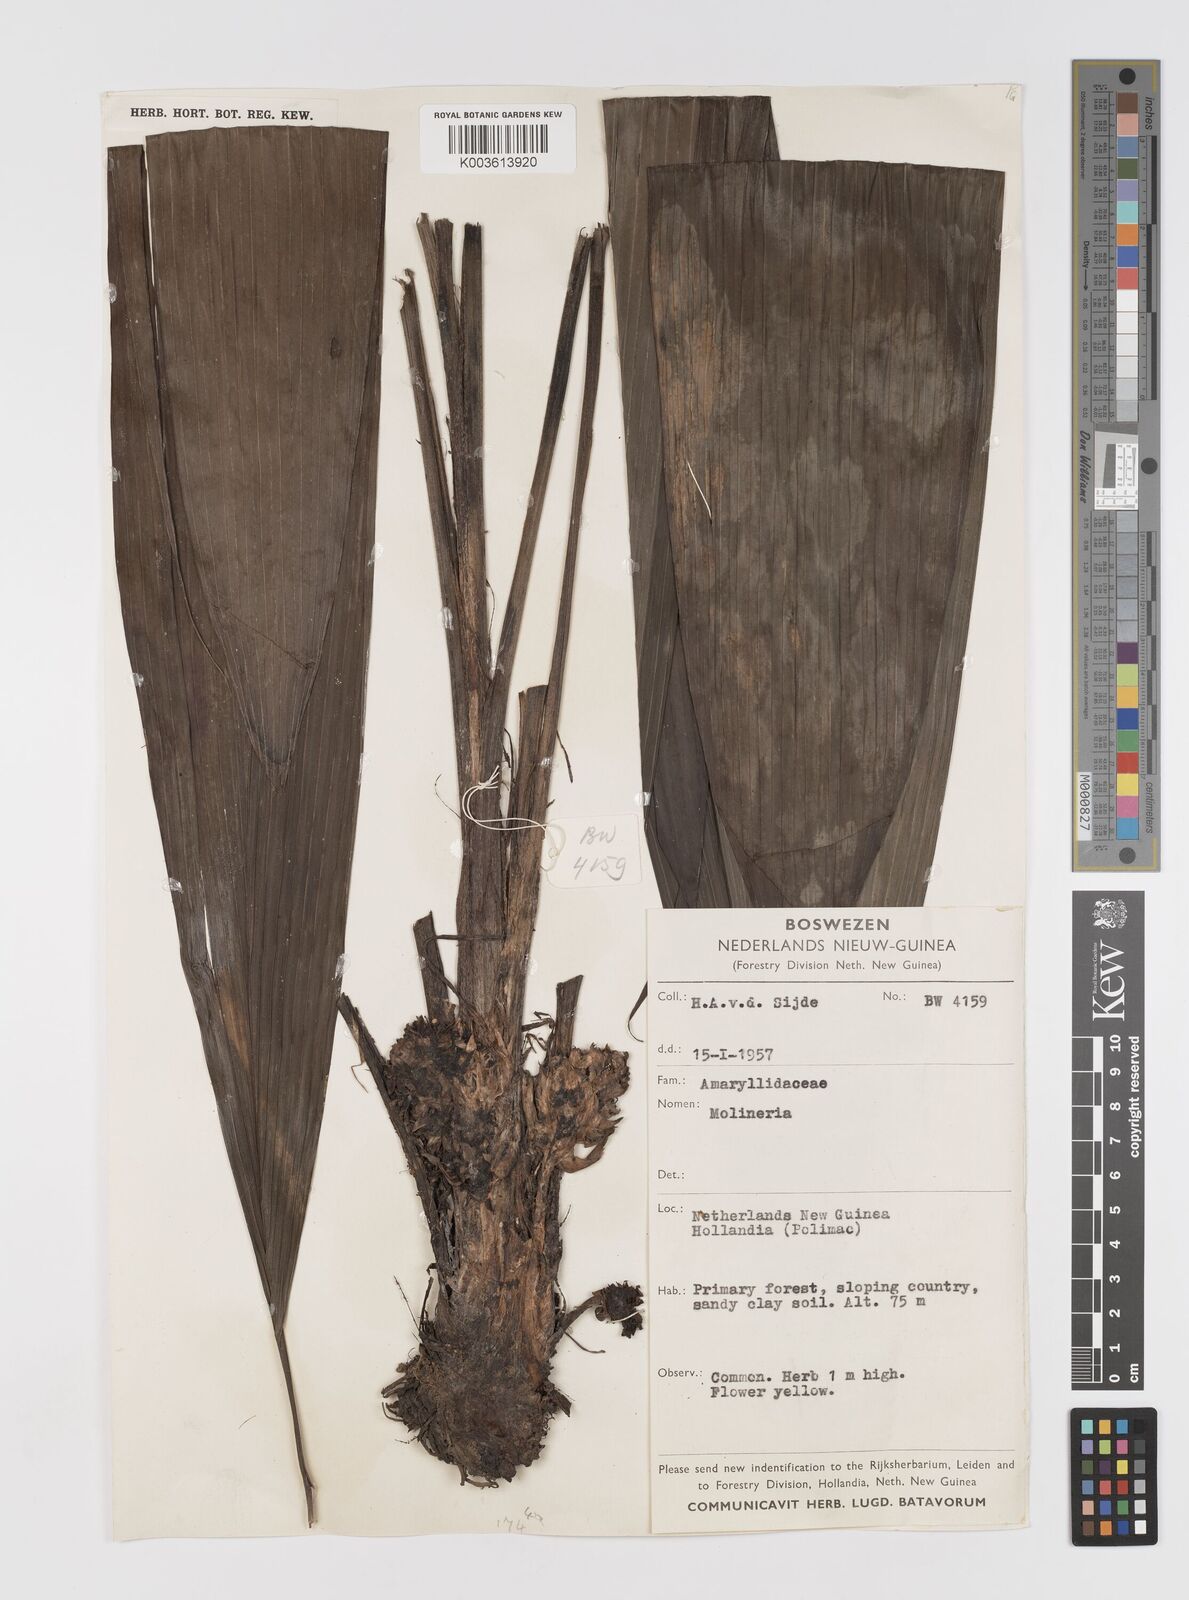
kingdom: Plantae
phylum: Tracheophyta
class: Liliopsida
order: Asparagales
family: Hypoxidaceae
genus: Curculigo
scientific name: Curculigo
